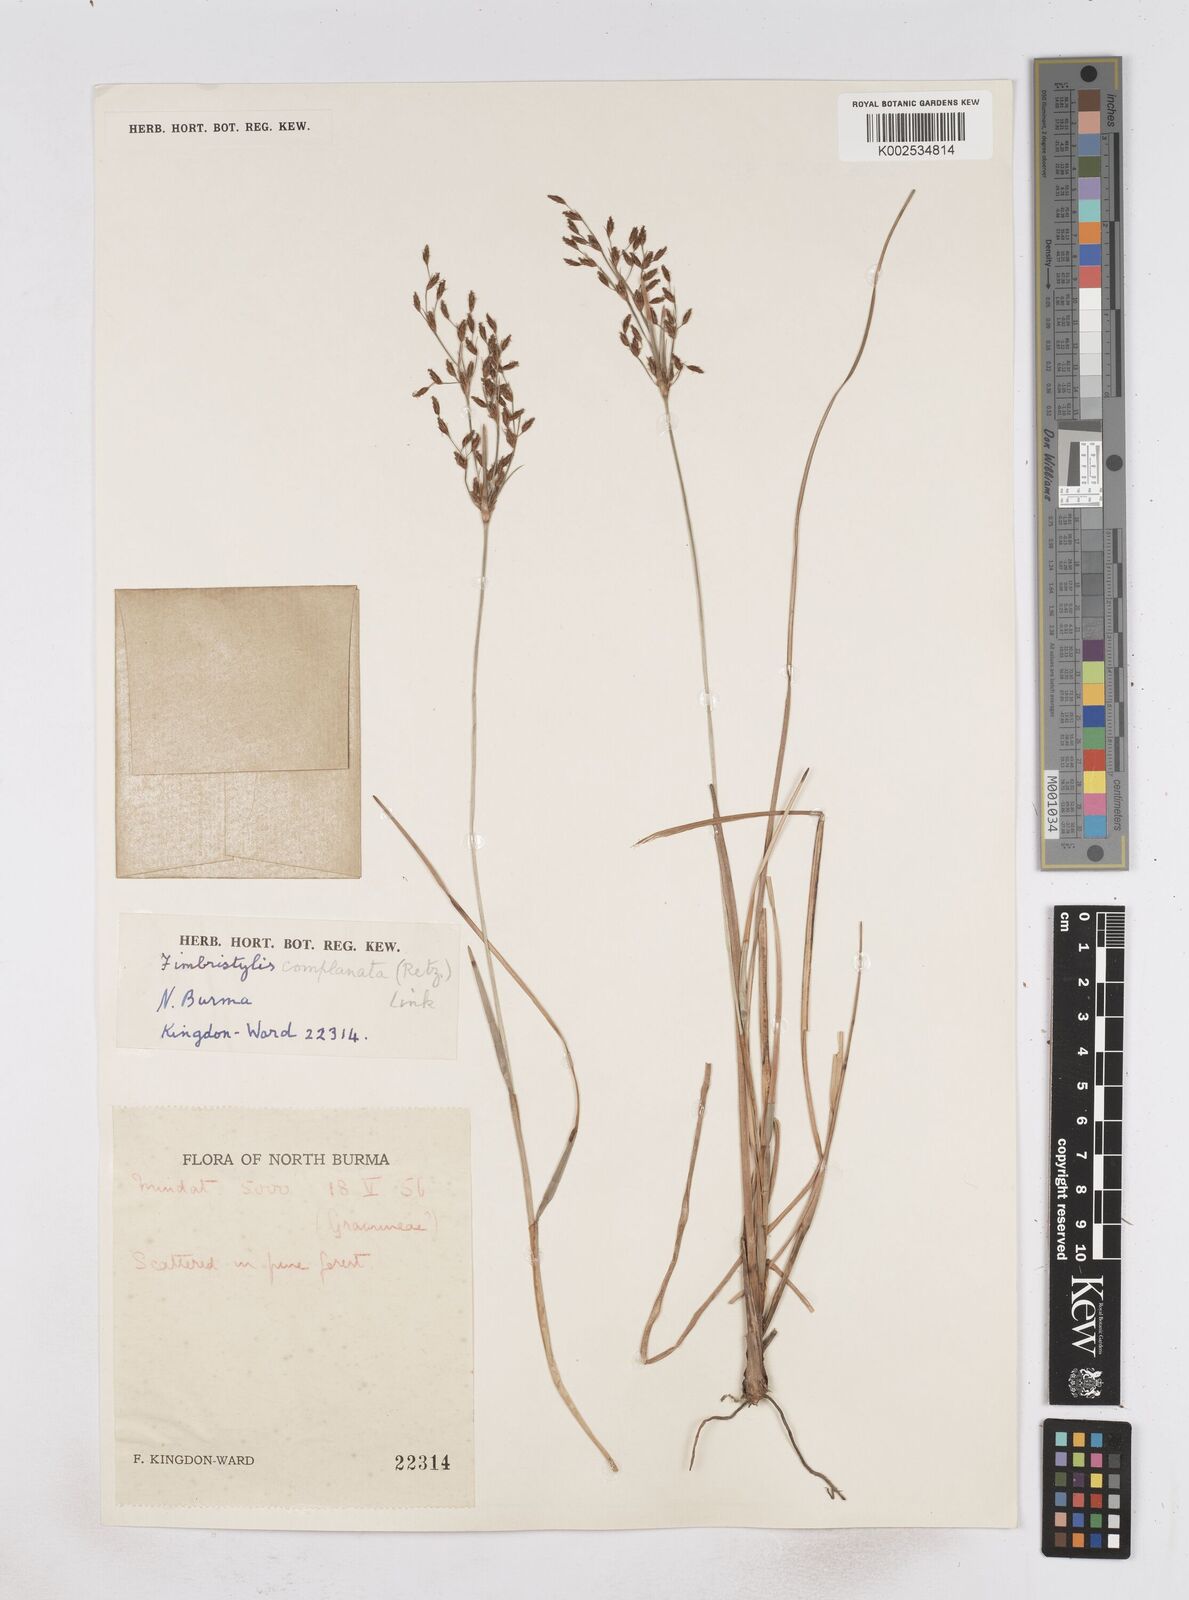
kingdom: Plantae
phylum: Tracheophyta
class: Liliopsida
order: Poales
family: Cyperaceae
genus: Fimbristylis
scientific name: Fimbristylis complanata
